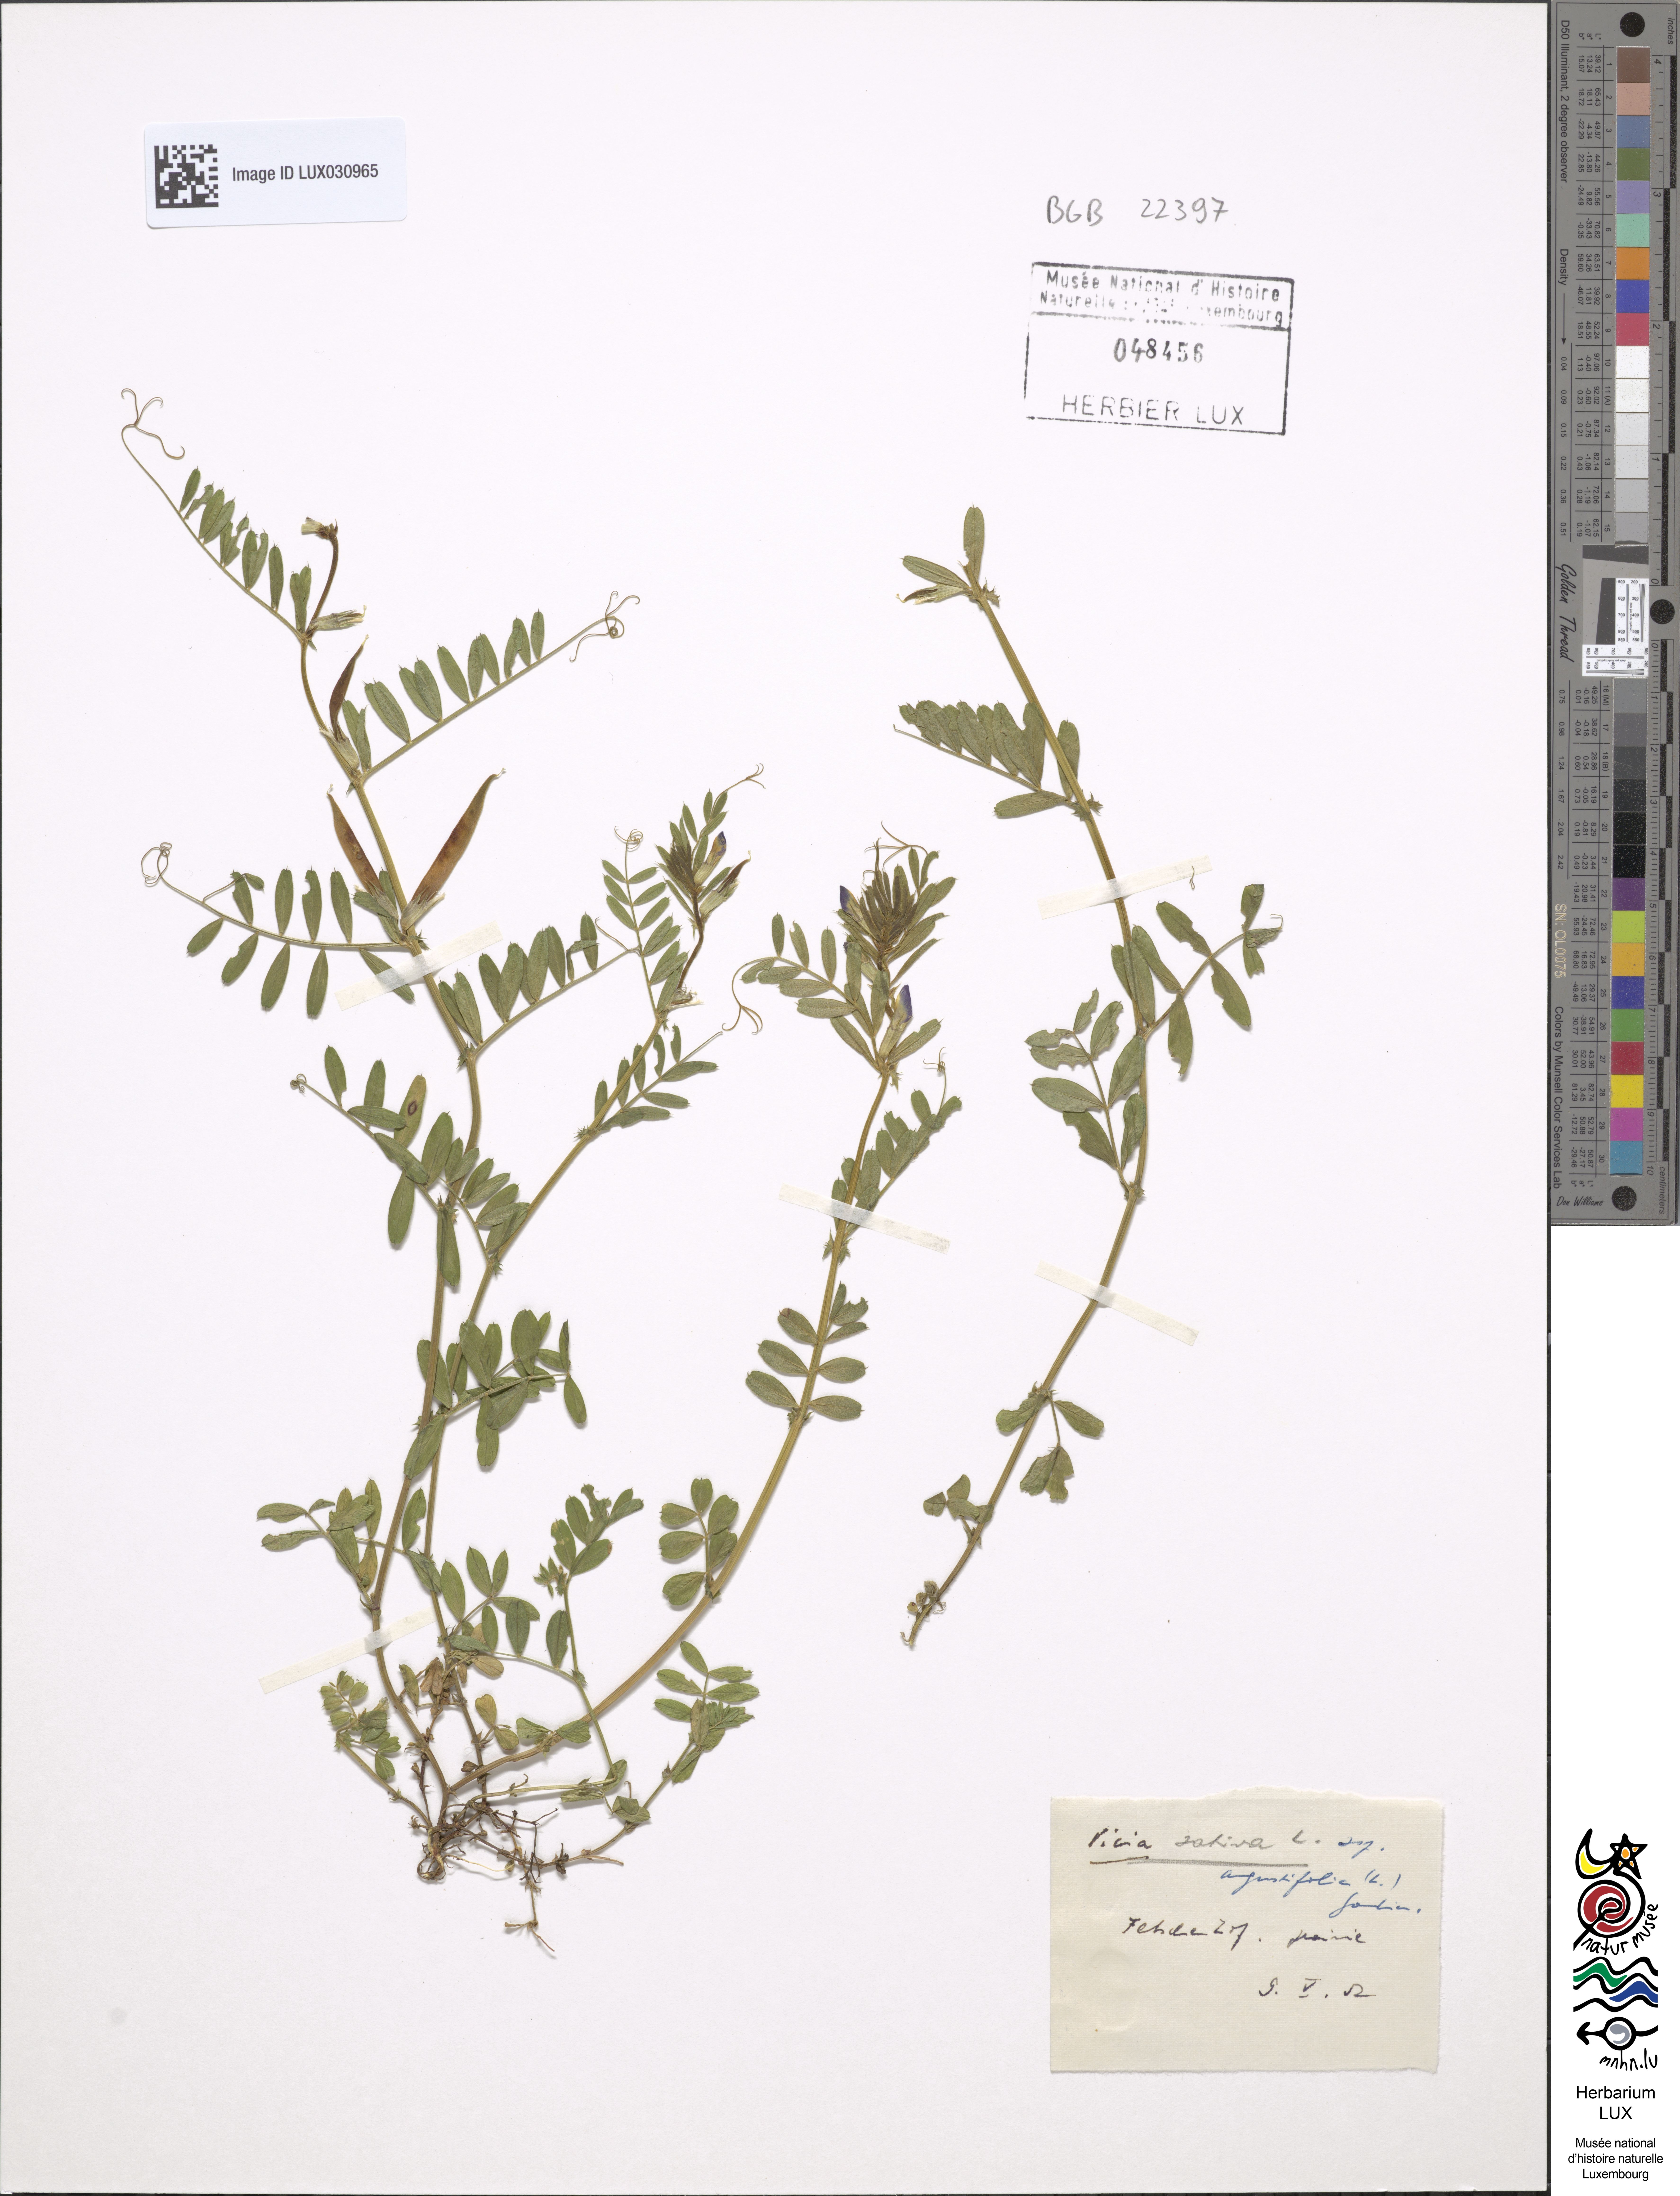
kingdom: Plantae
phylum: Tracheophyta
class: Magnoliopsida
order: Fabales
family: Fabaceae
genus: Vicia
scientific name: Vicia sativa
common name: Garden vetch
